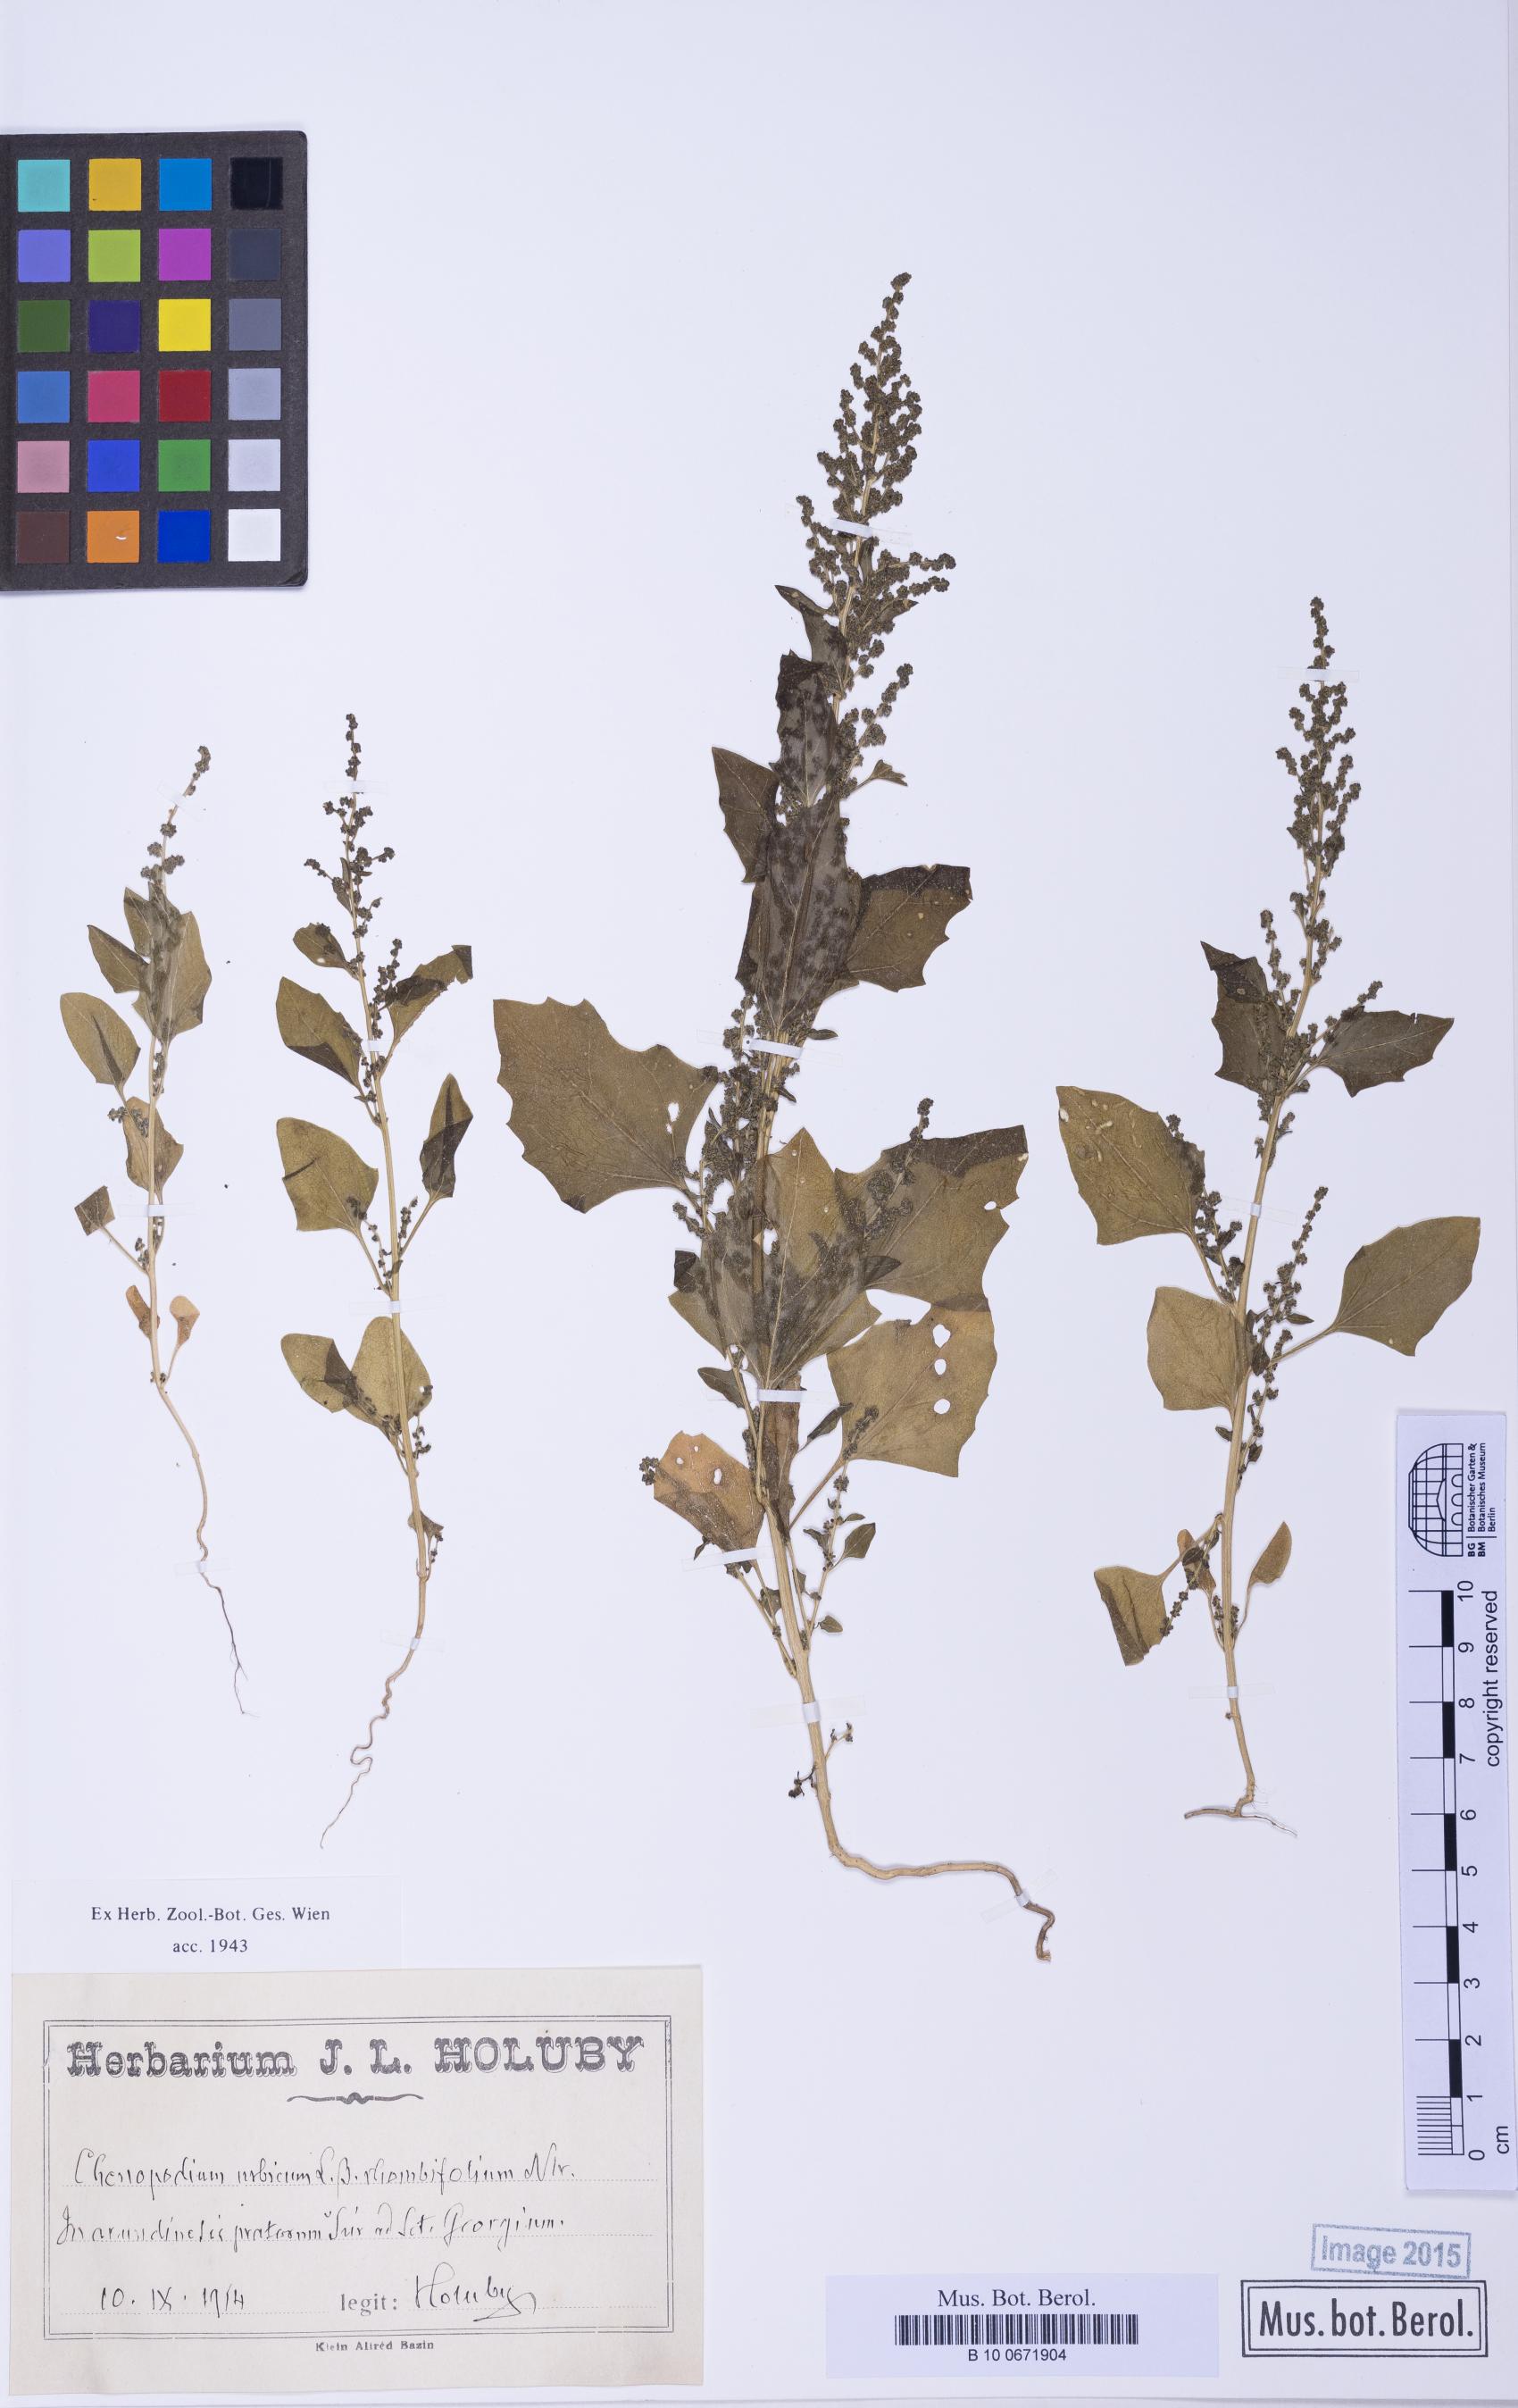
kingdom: Plantae
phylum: Tracheophyta
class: Magnoliopsida
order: Caryophyllales
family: Amaranthaceae
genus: Oxybasis
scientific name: Oxybasis chenopodioides
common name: Saltmarsh goosefoot
